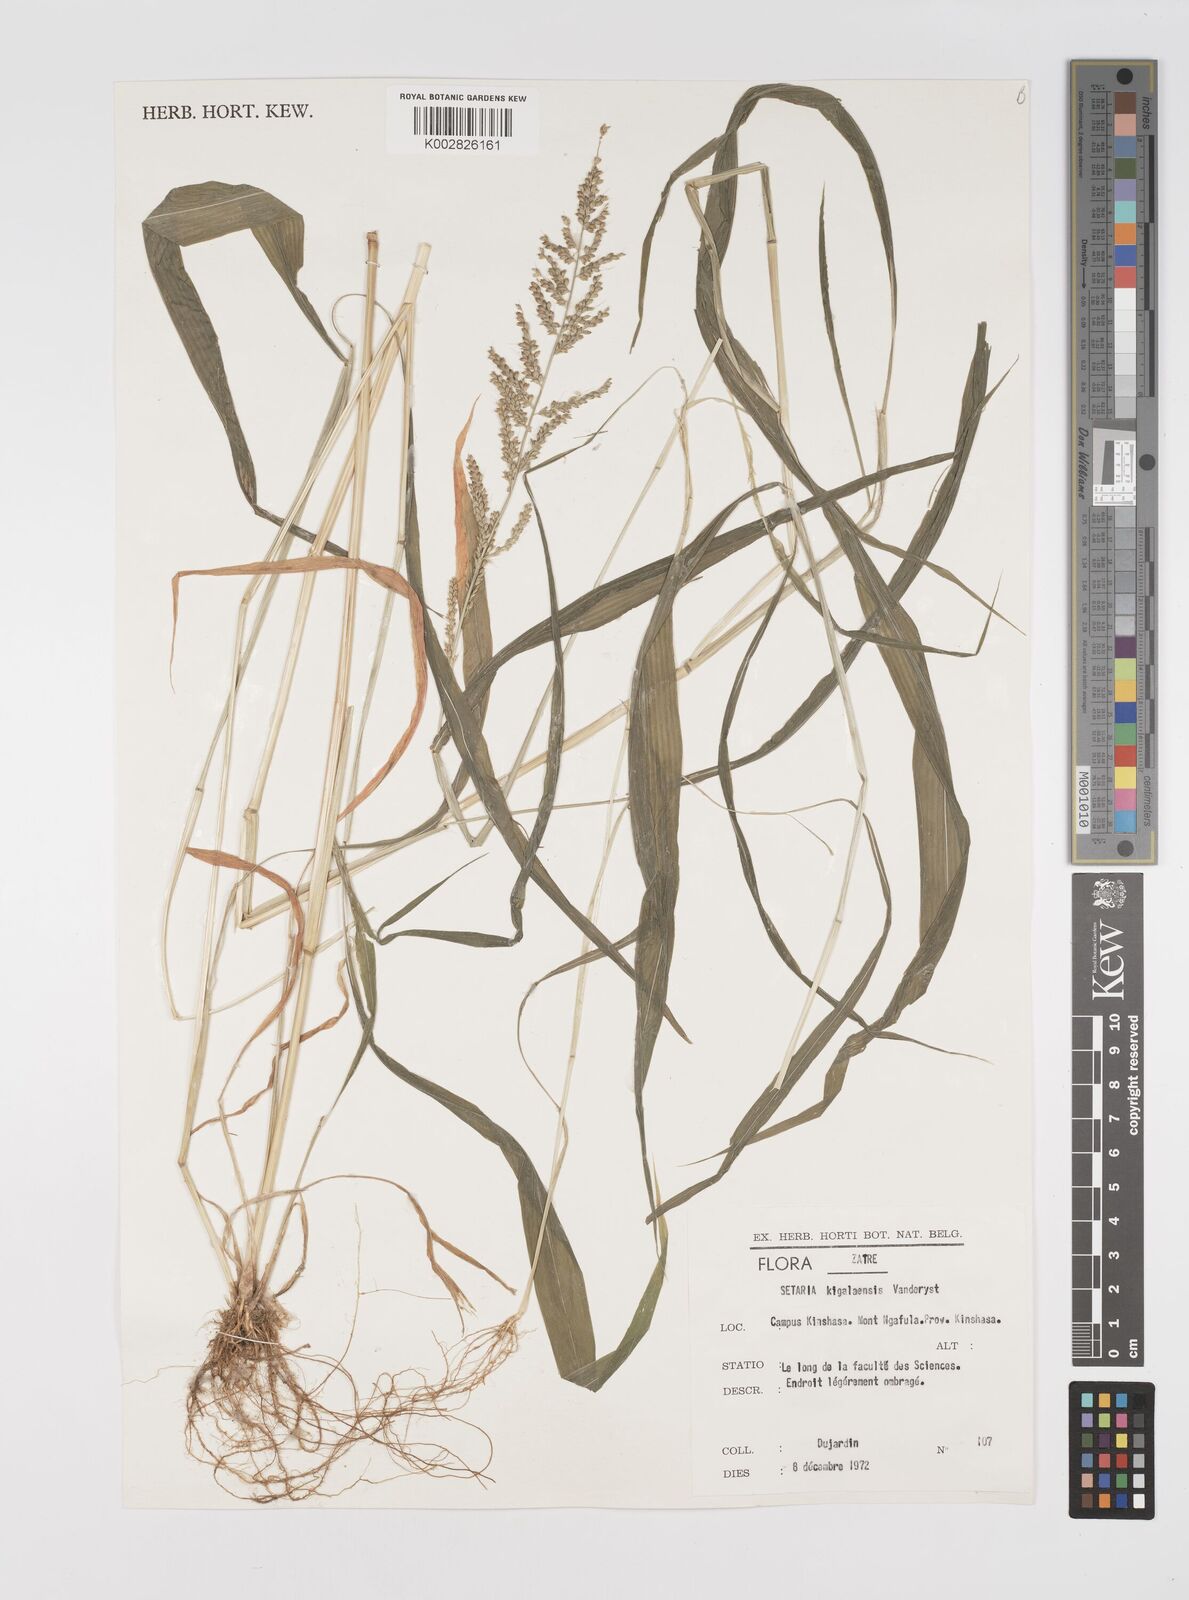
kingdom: Plantae
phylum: Tracheophyta
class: Liliopsida
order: Poales
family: Poaceae
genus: Setaria
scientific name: Setaria barbata
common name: East indian bristlegrass
